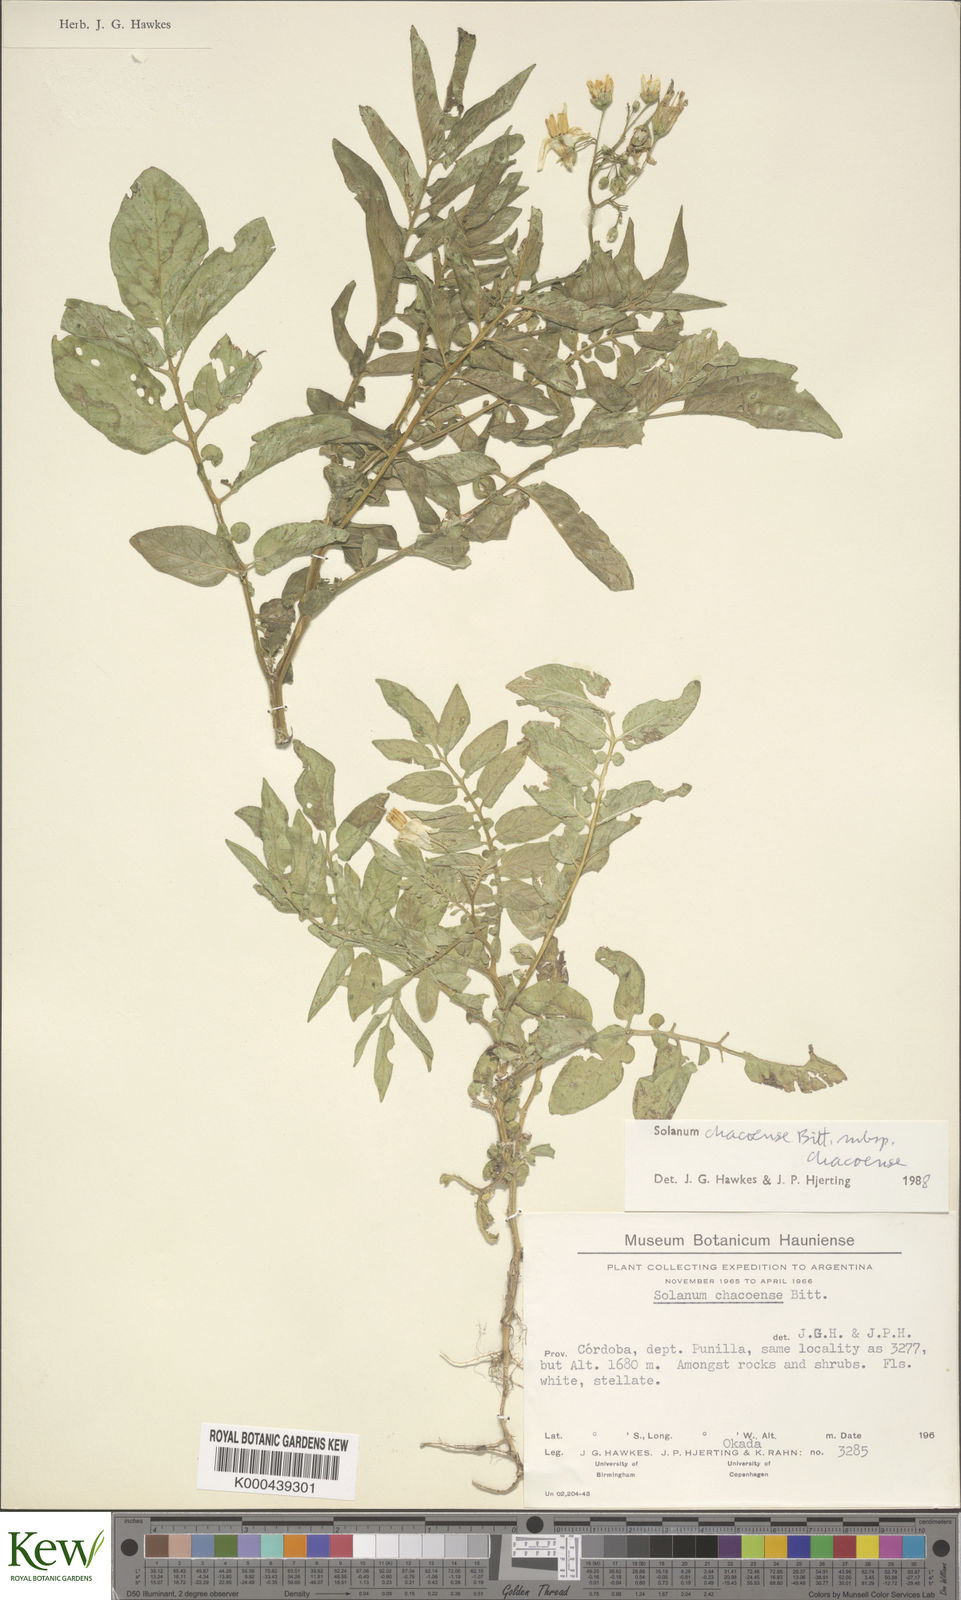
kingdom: Plantae
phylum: Tracheophyta
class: Magnoliopsida
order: Solanales
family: Solanaceae
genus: Solanum
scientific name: Solanum chacoense
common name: Chaco potato
